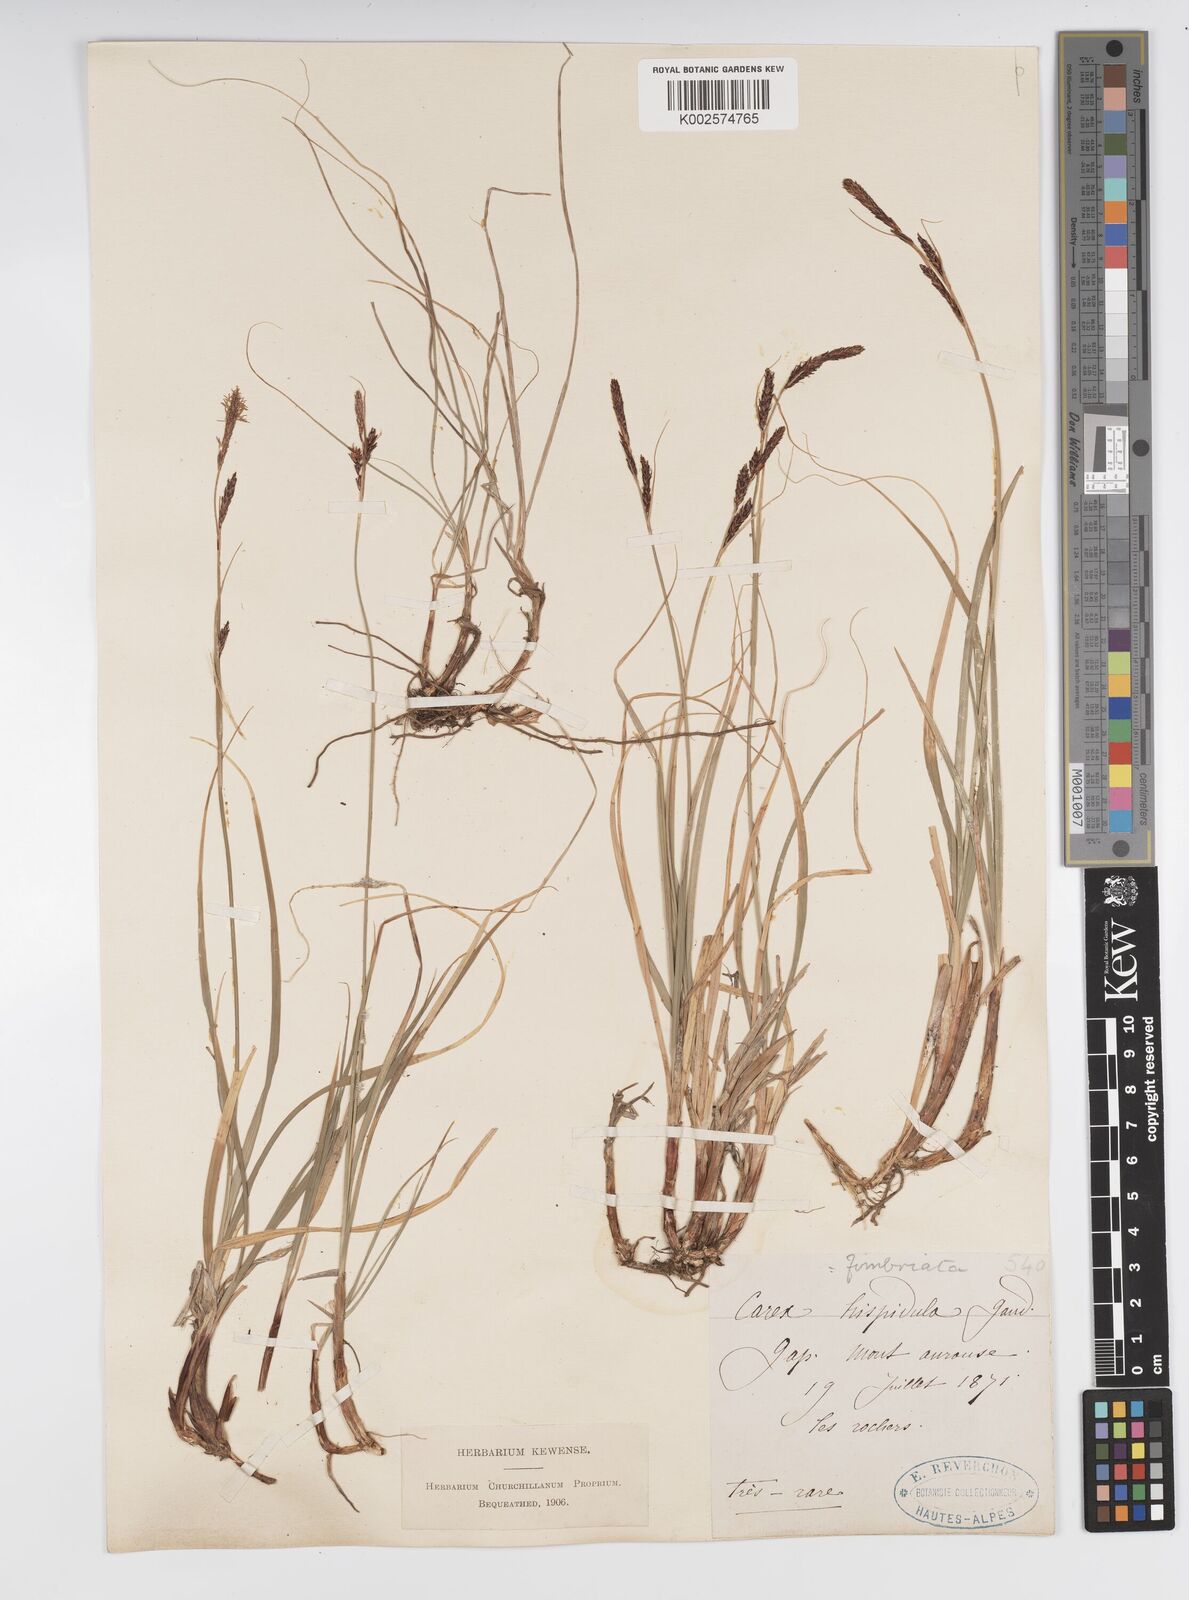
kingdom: Plantae
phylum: Tracheophyta
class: Liliopsida
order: Poales
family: Cyperaceae
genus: Carex
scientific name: Carex fimbriata
